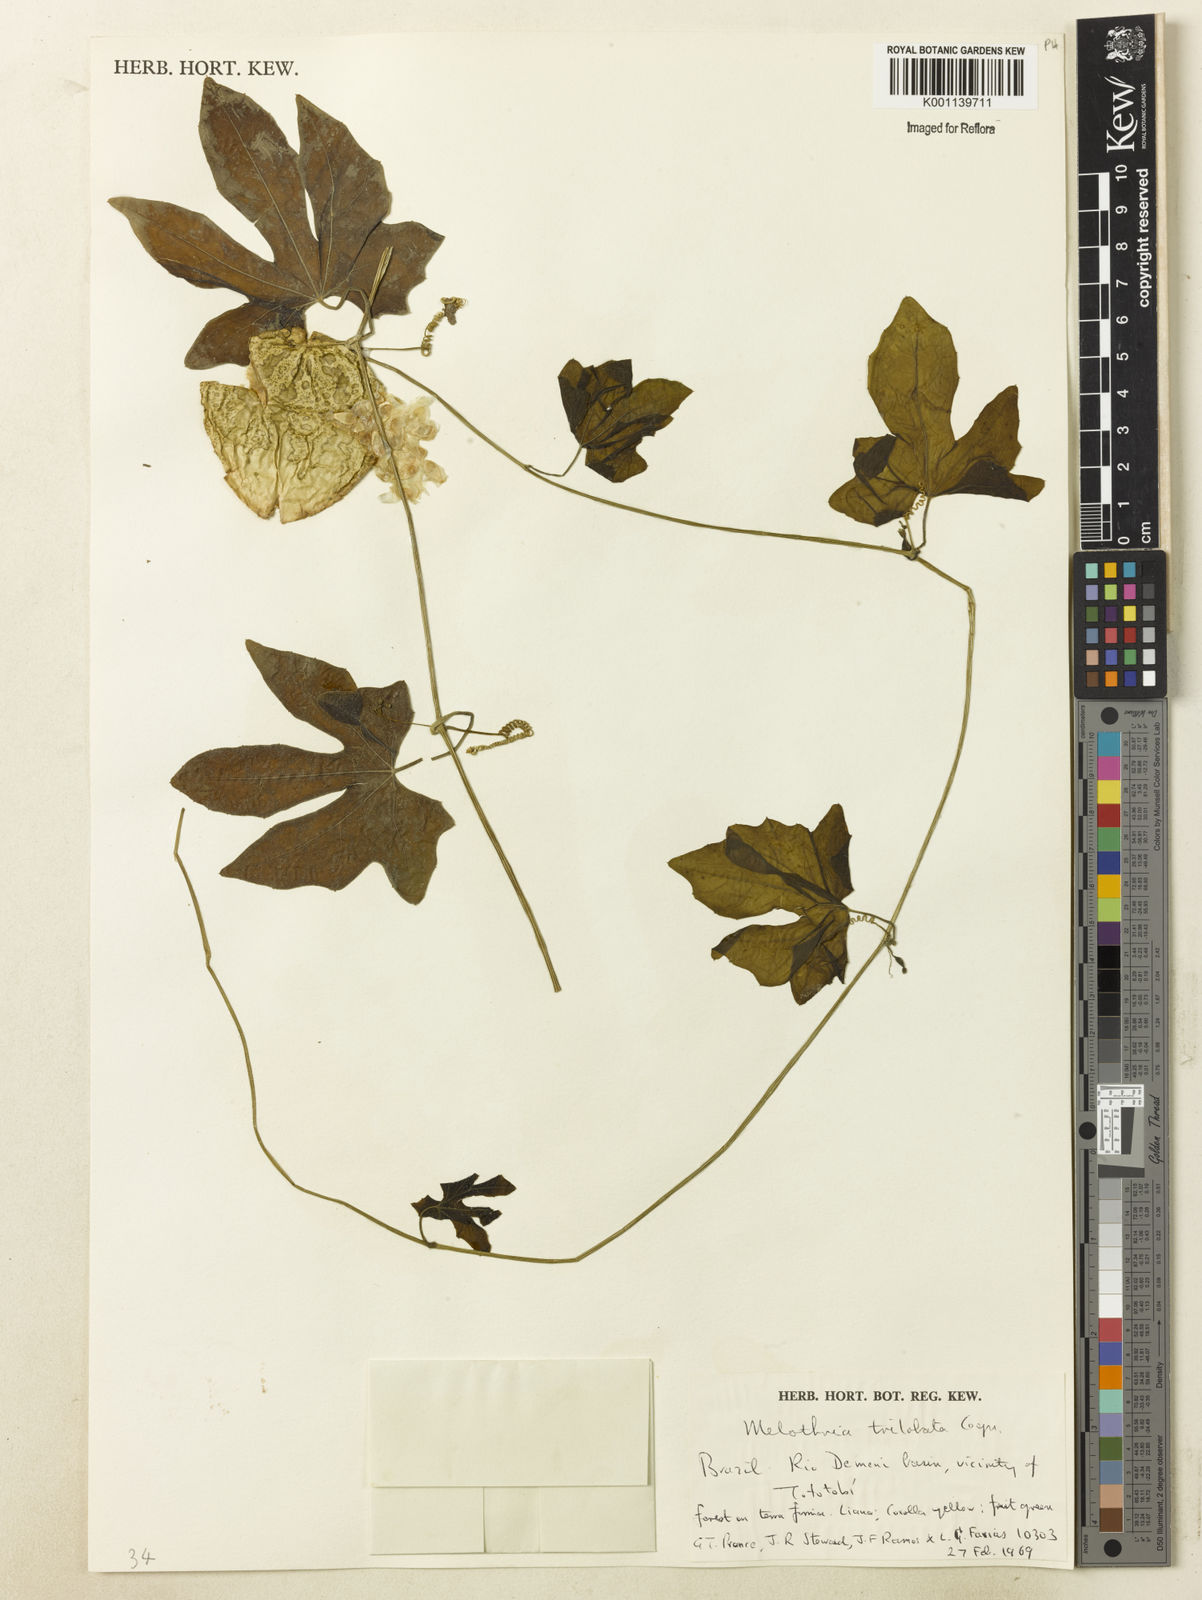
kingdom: Plantae
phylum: Tracheophyta
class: Magnoliopsida
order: Cucurbitales
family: Cucurbitaceae
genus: Melothria
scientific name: Melothria trilobata
